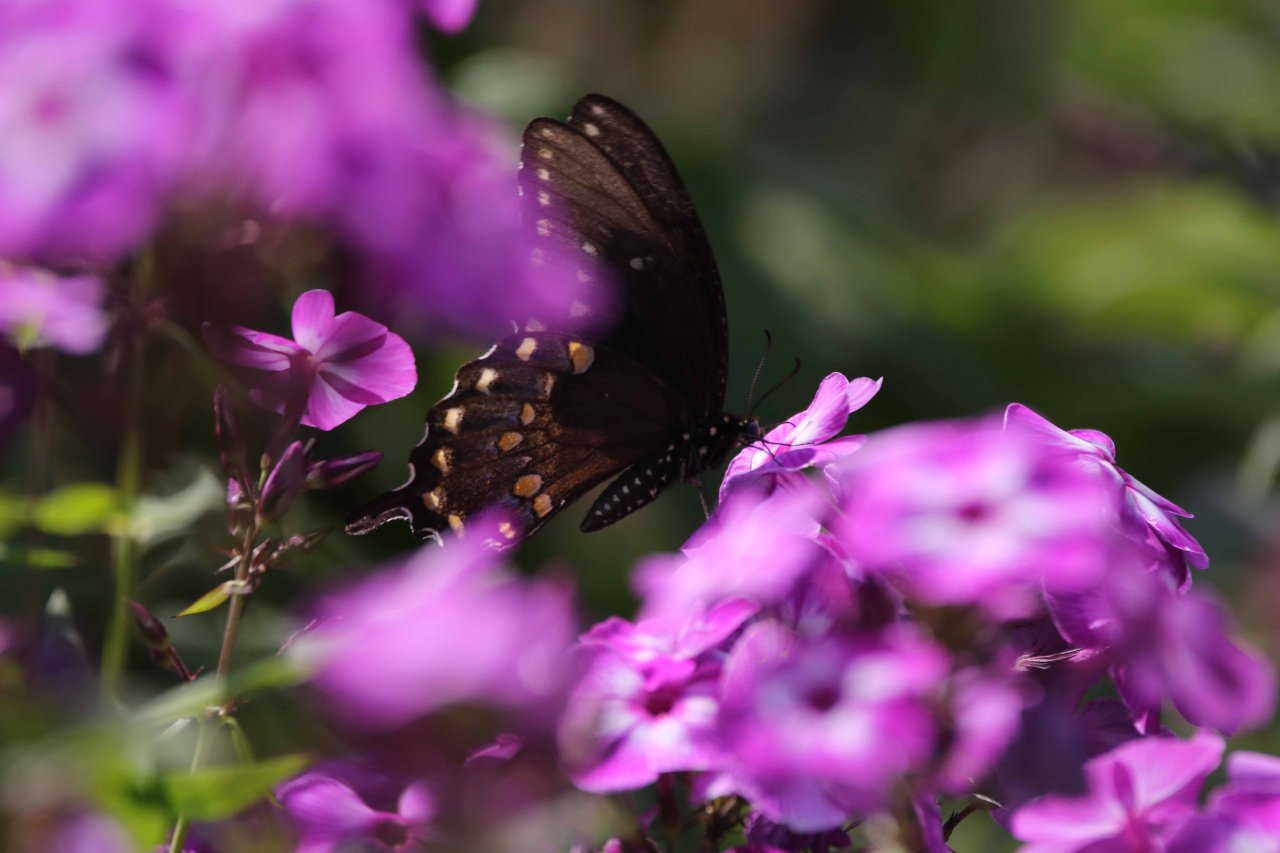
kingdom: Animalia
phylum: Arthropoda
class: Insecta
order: Lepidoptera
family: Papilionidae
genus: Pterourus
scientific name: Pterourus troilus
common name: Spicebush Swallowtail
